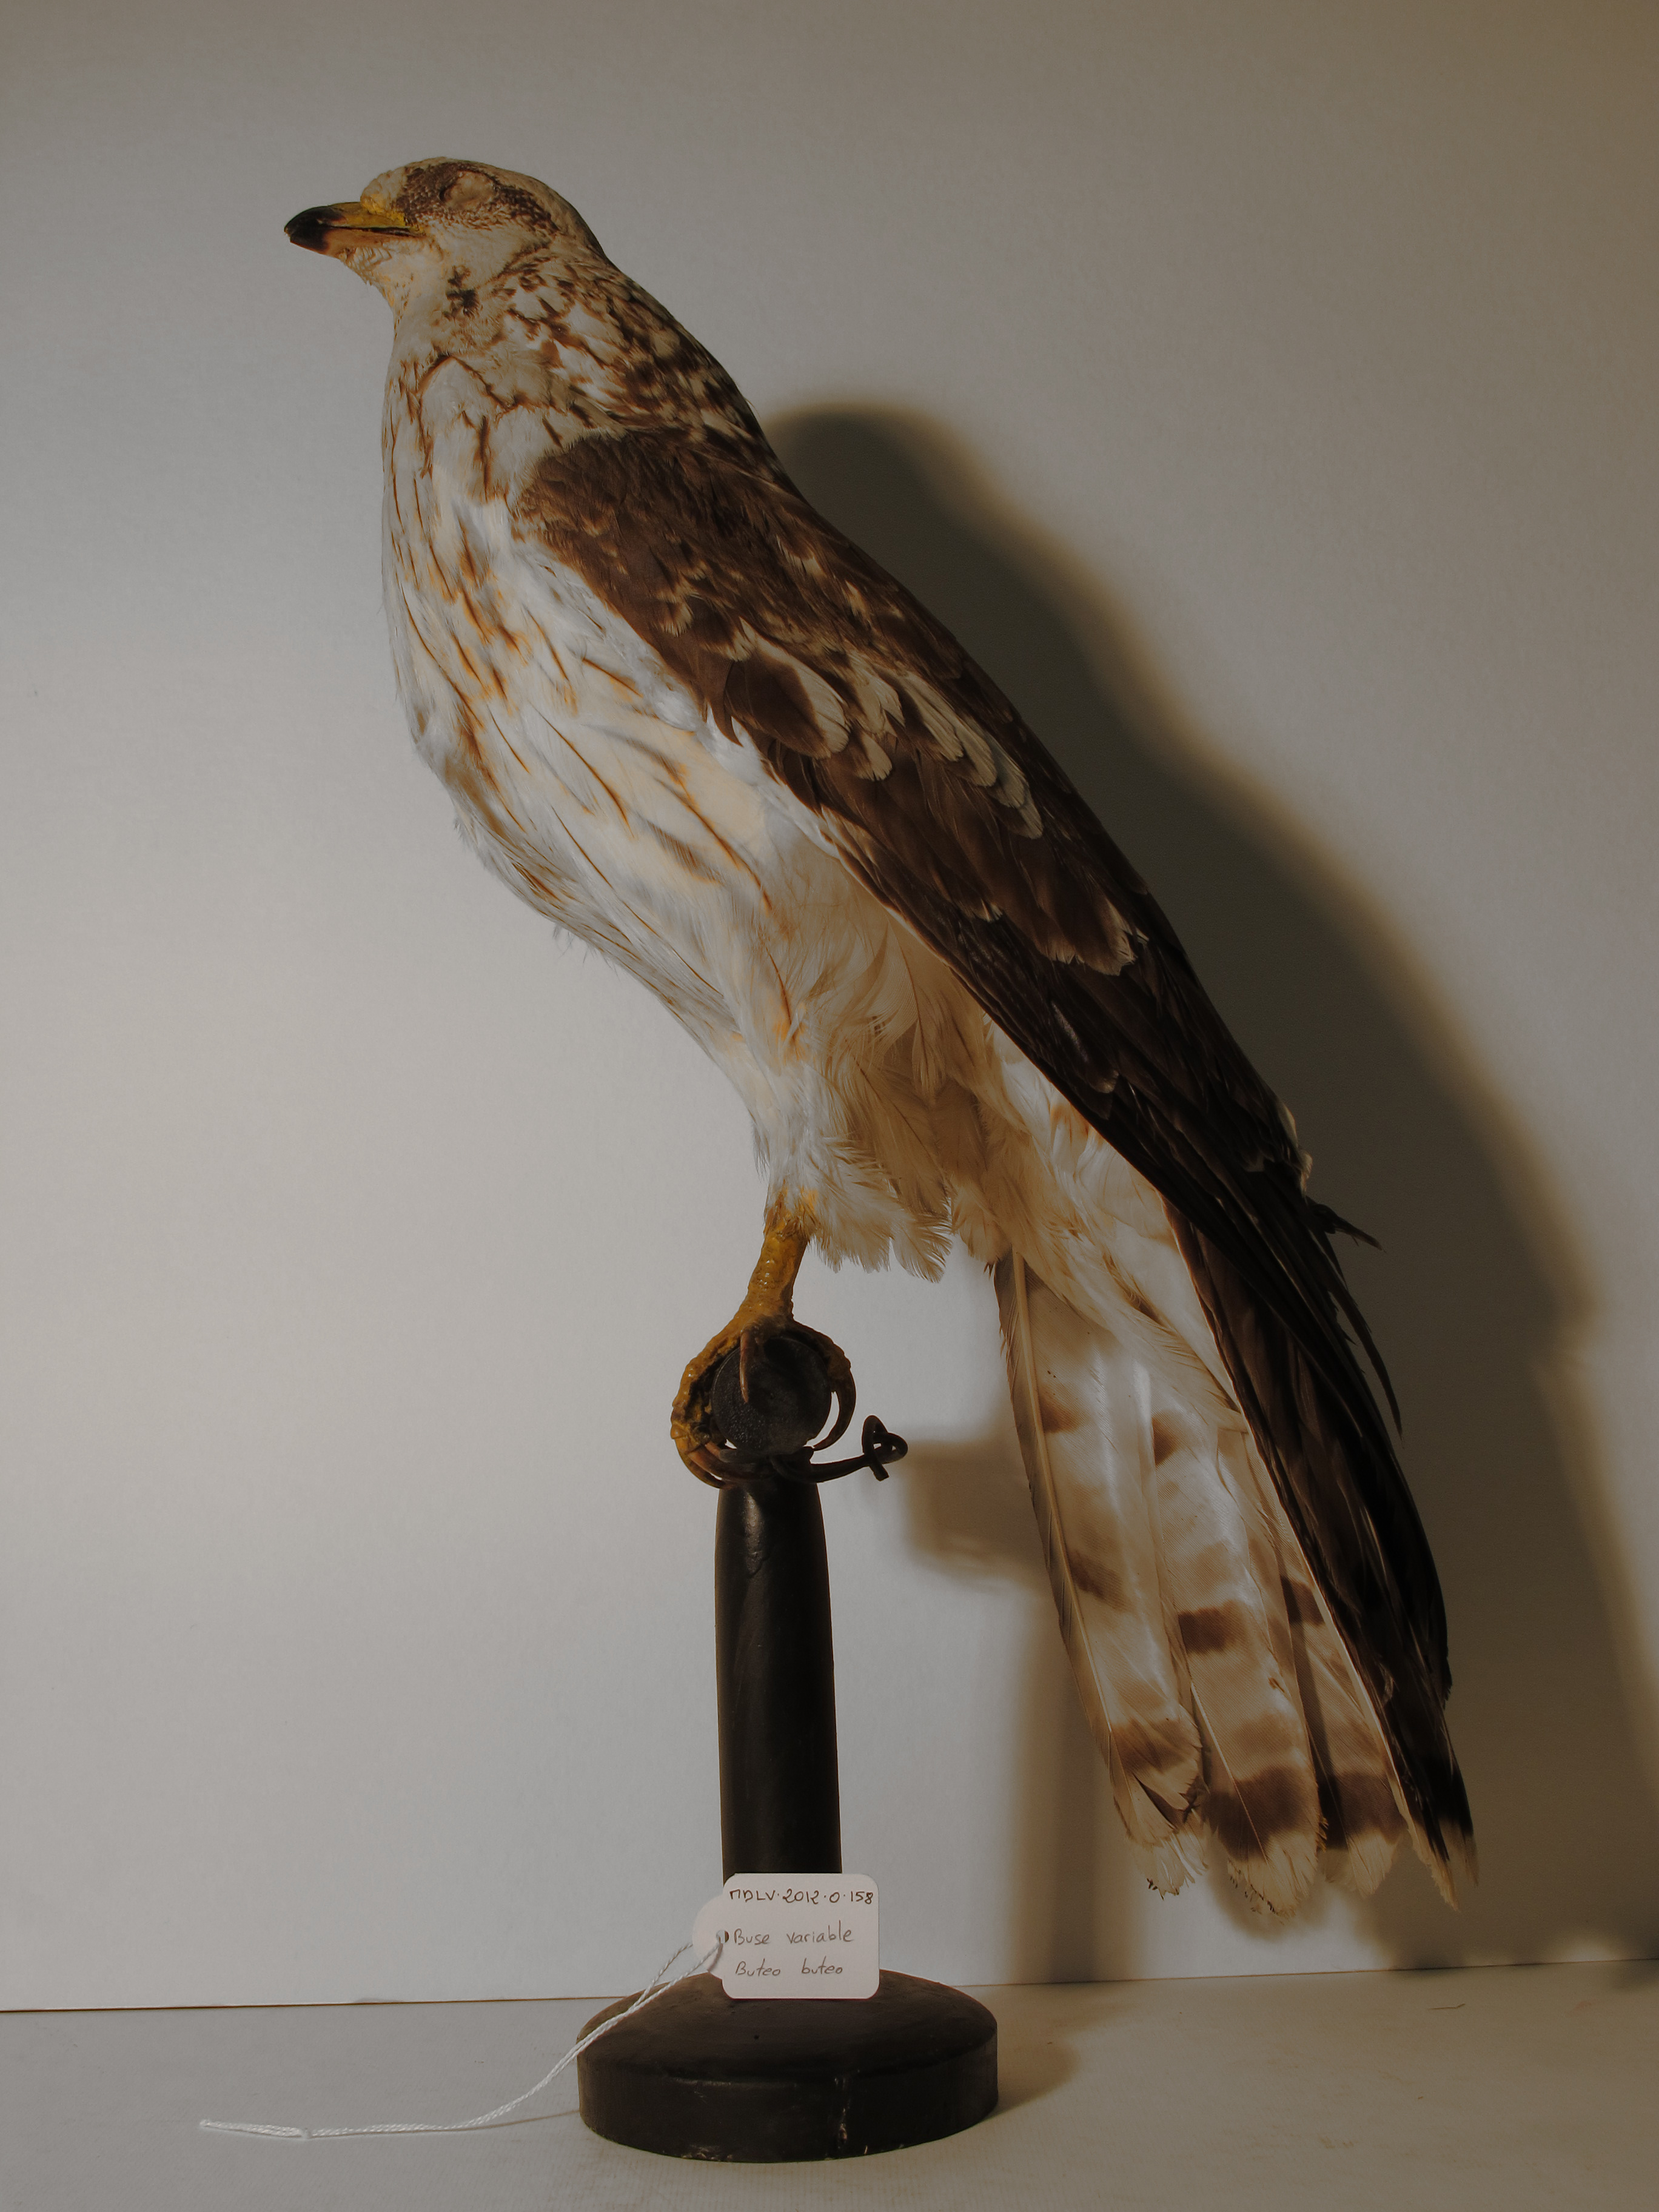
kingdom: Animalia
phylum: Chordata
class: Aves
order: Accipitriformes
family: Accipitridae
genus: Buteo
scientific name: Buteo buteo
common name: Eurasian Buzzard
